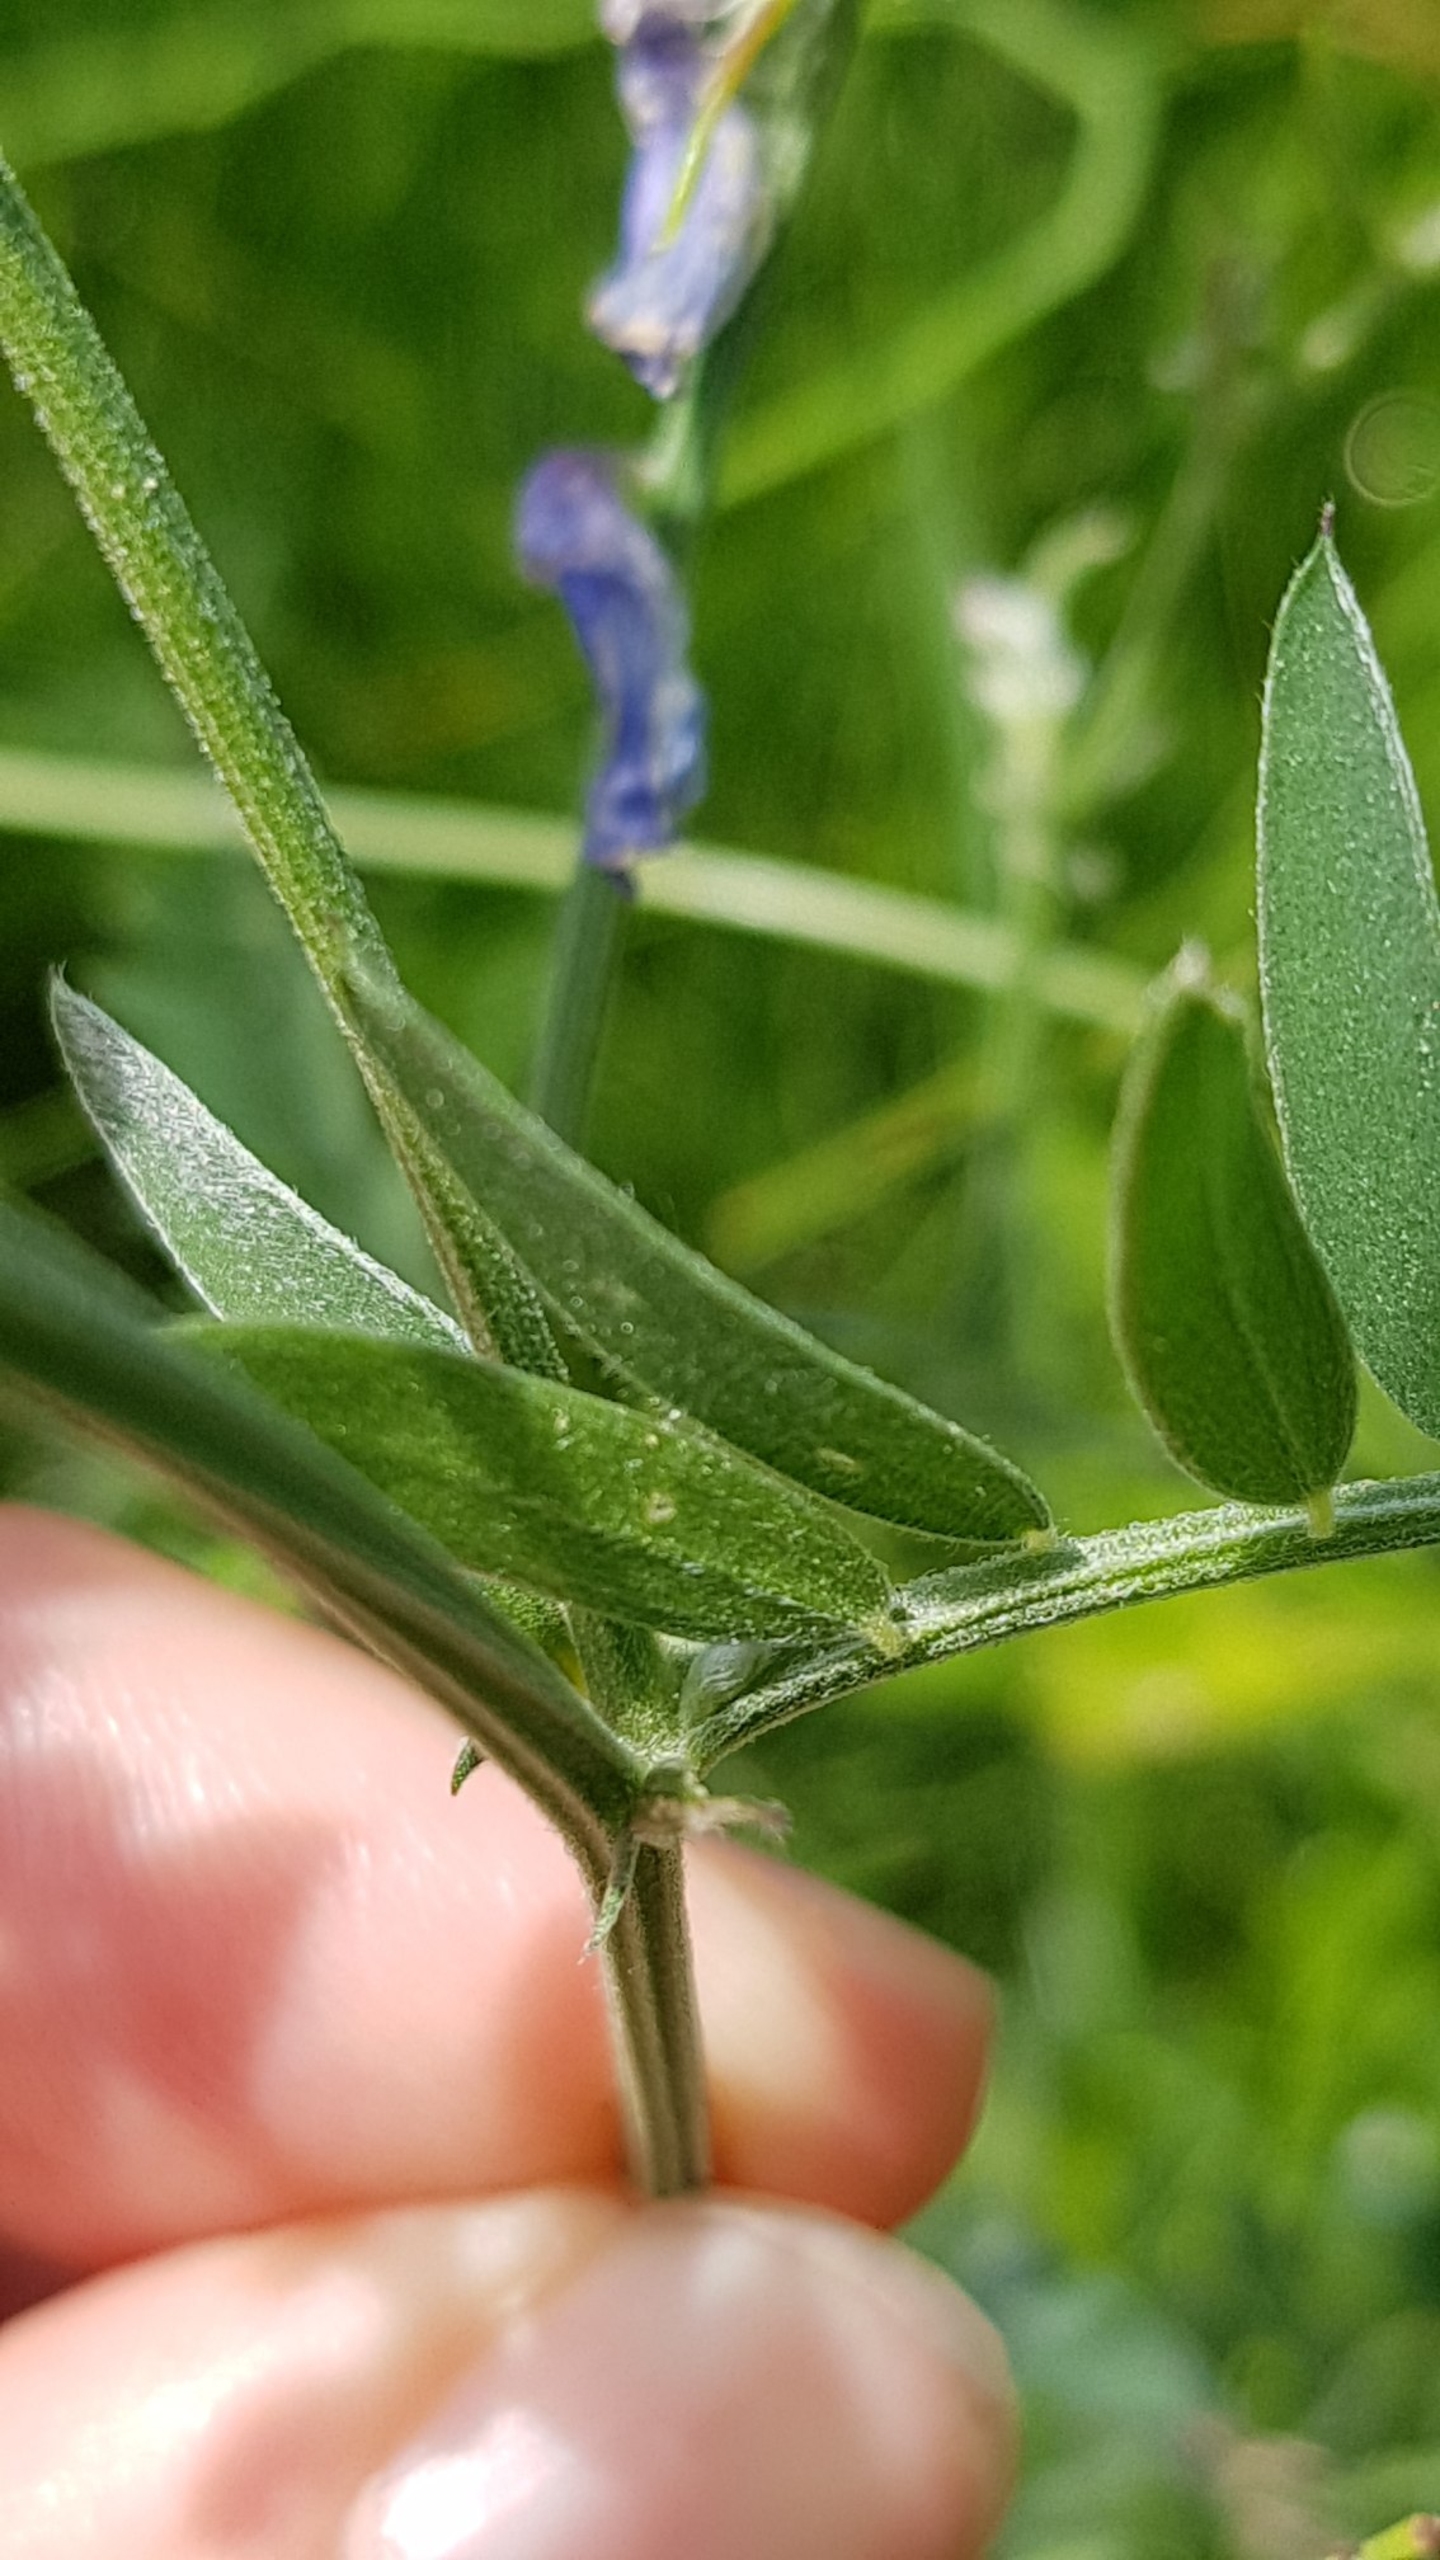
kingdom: Plantae
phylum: Tracheophyta
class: Magnoliopsida
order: Fabales
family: Fabaceae
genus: Vicia
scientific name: Vicia cracca
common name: Muse-vikke
